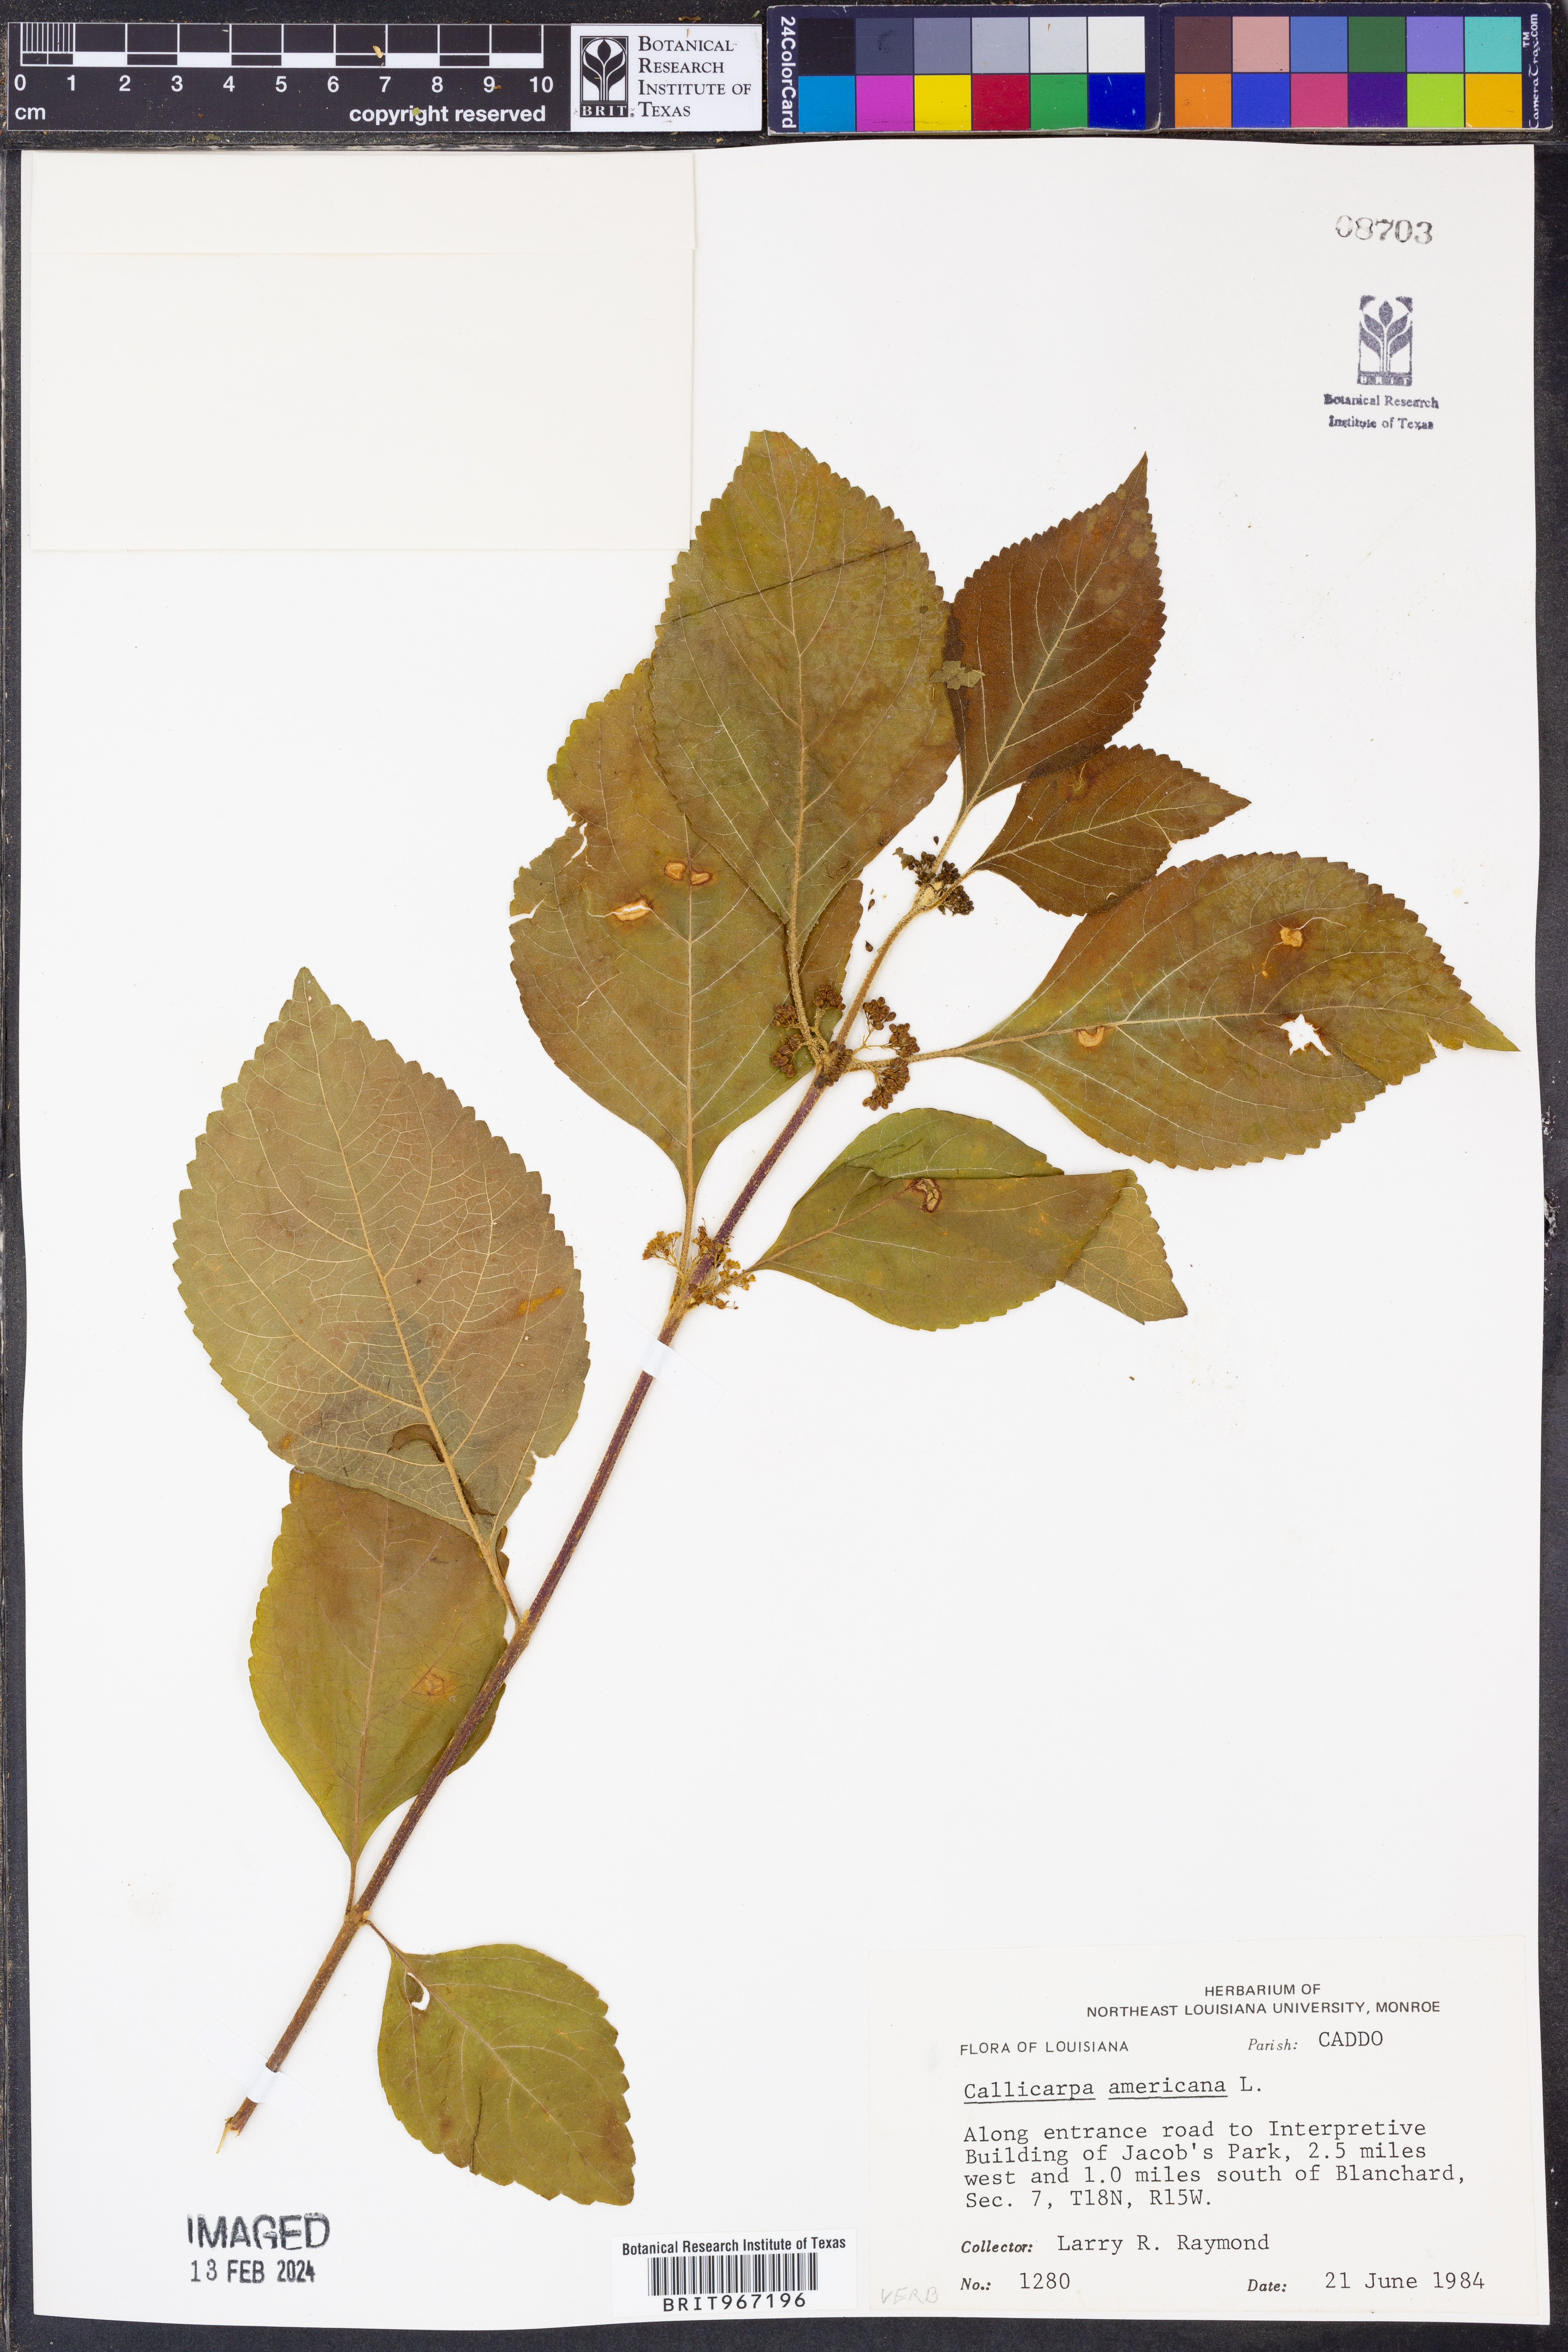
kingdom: Plantae
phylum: Tracheophyta
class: Magnoliopsida
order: Lamiales
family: Lamiaceae
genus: Callicarpa
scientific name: Callicarpa americana
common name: American beautyberry
